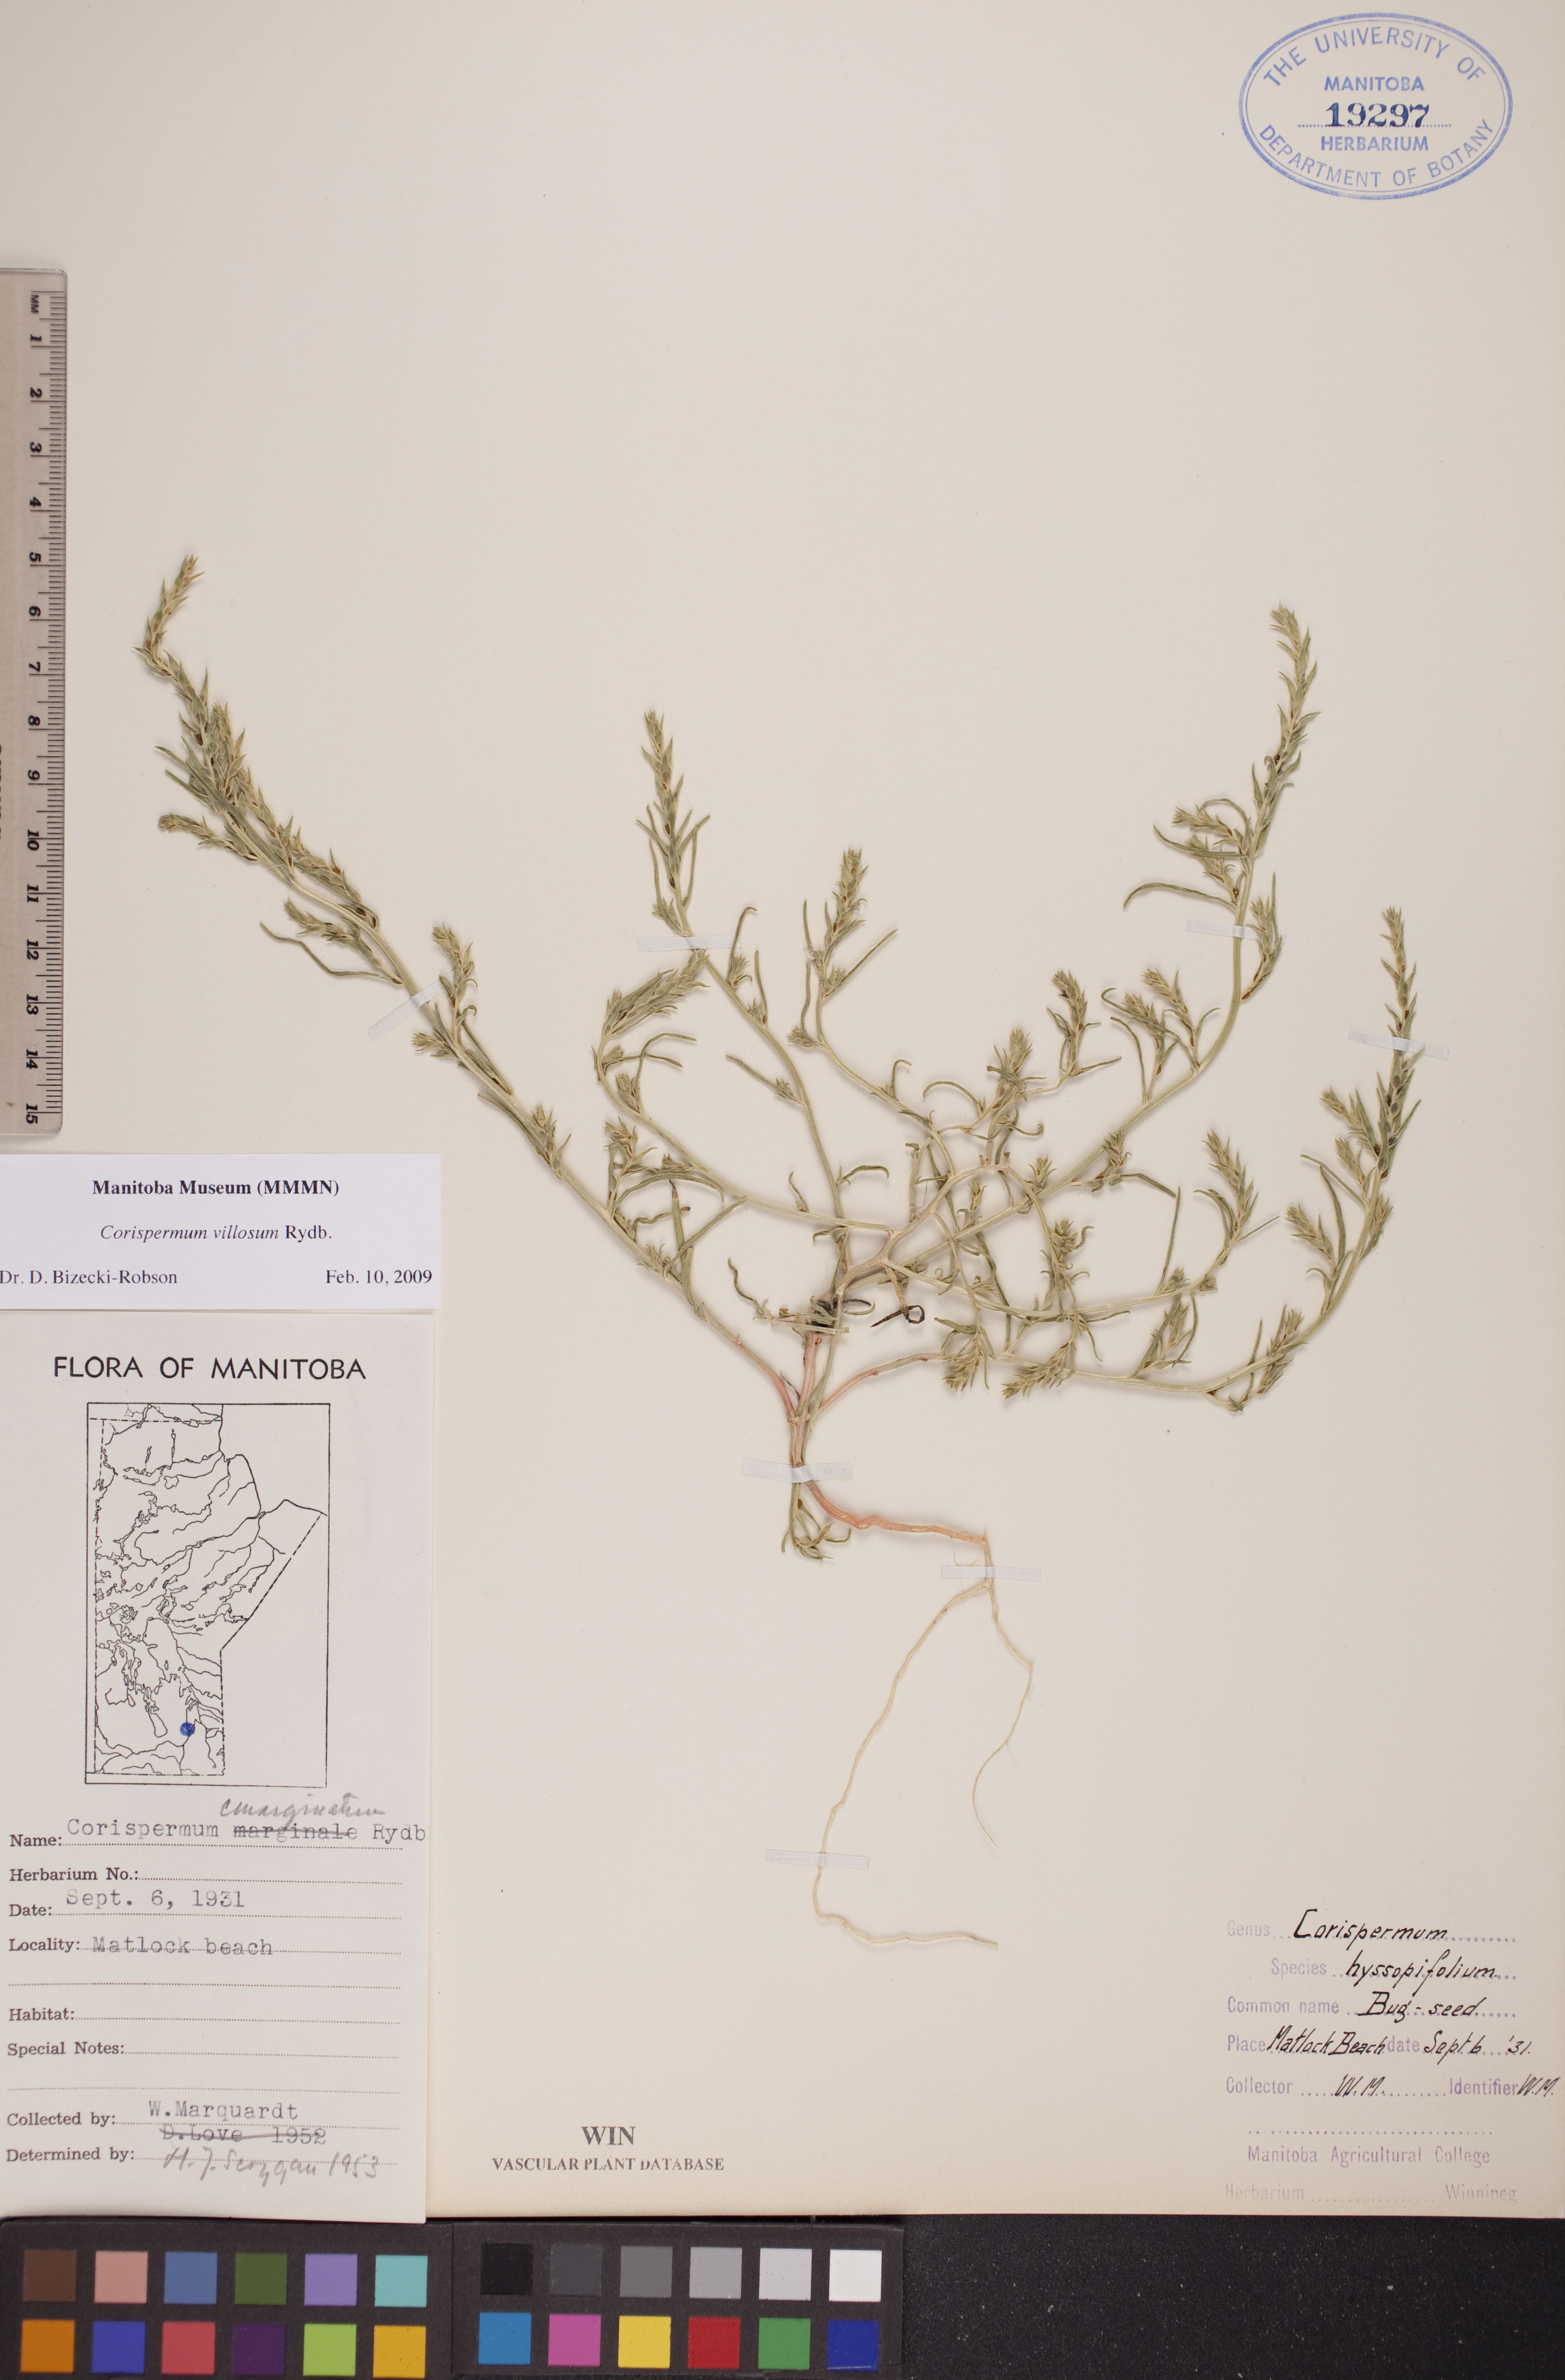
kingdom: Plantae
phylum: Tracheophyta
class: Magnoliopsida
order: Caryophyllales
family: Amaranthaceae
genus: Corispermum
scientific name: Corispermum villosum
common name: Hairy bugseed
